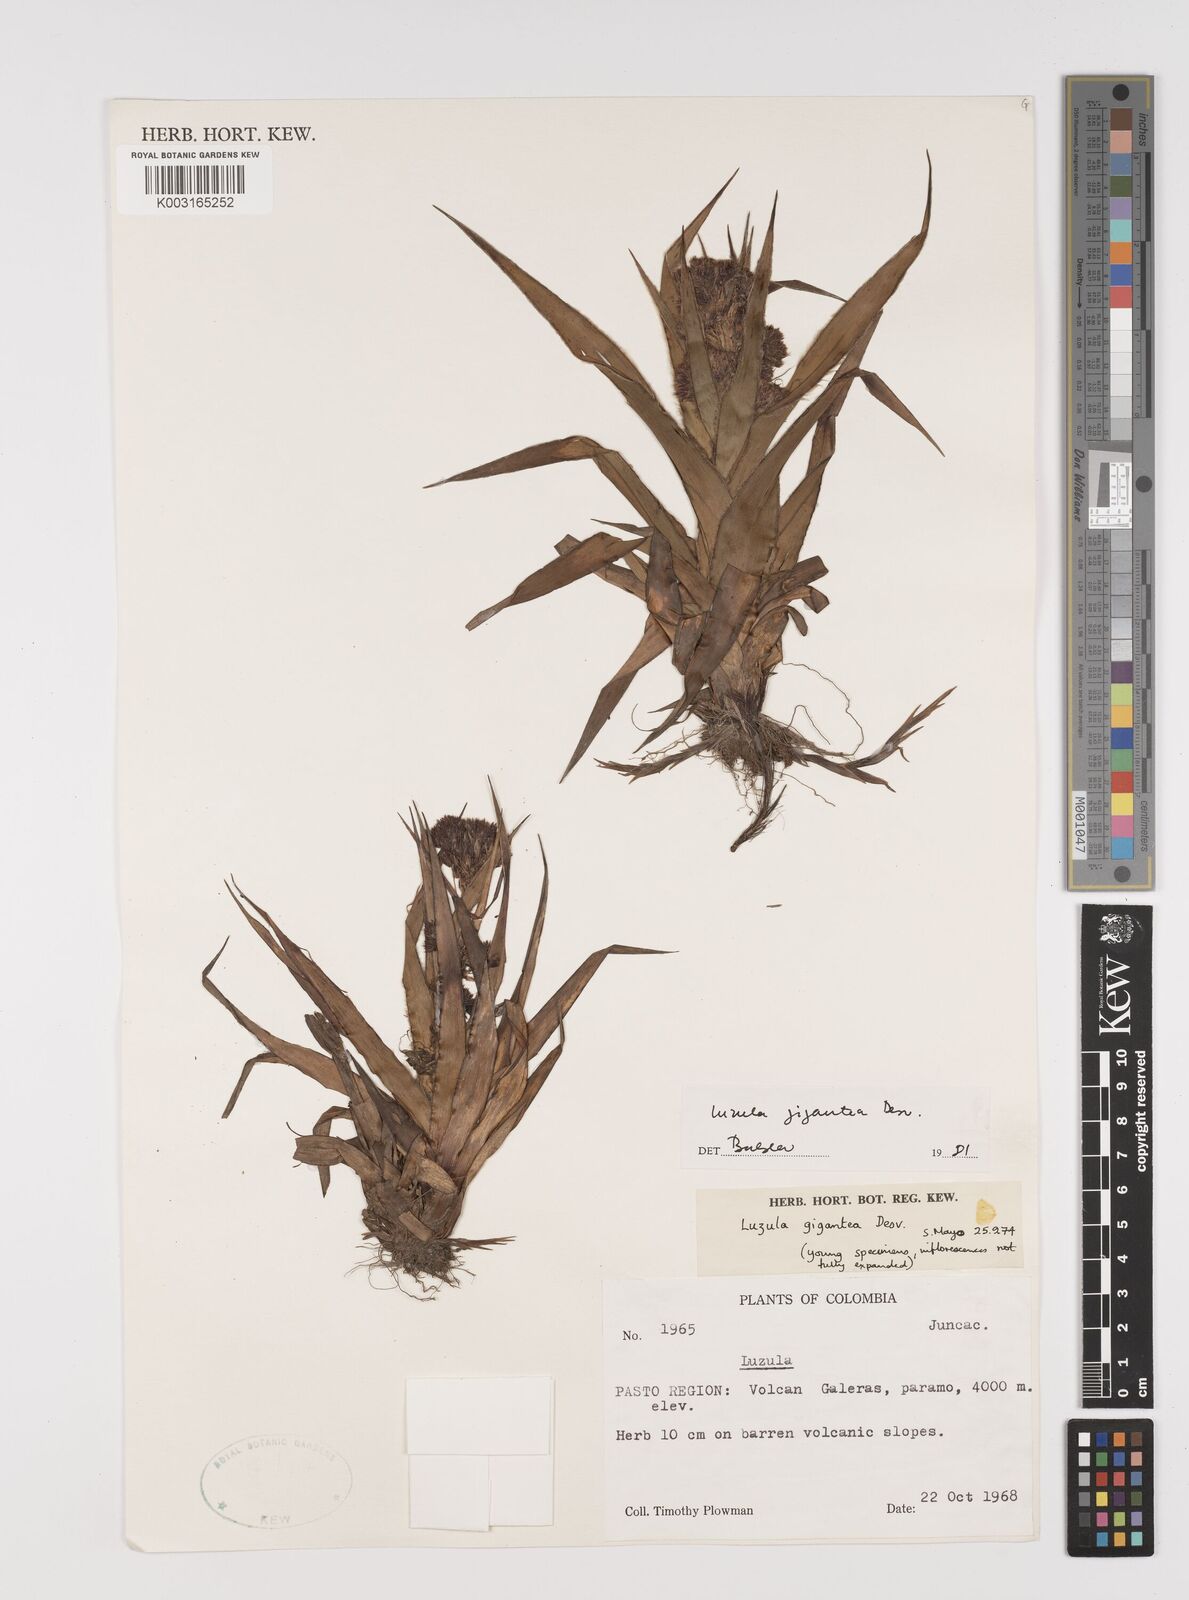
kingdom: Plantae
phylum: Tracheophyta
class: Liliopsida
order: Poales
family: Juncaceae
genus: Luzula
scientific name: Luzula gigantea
